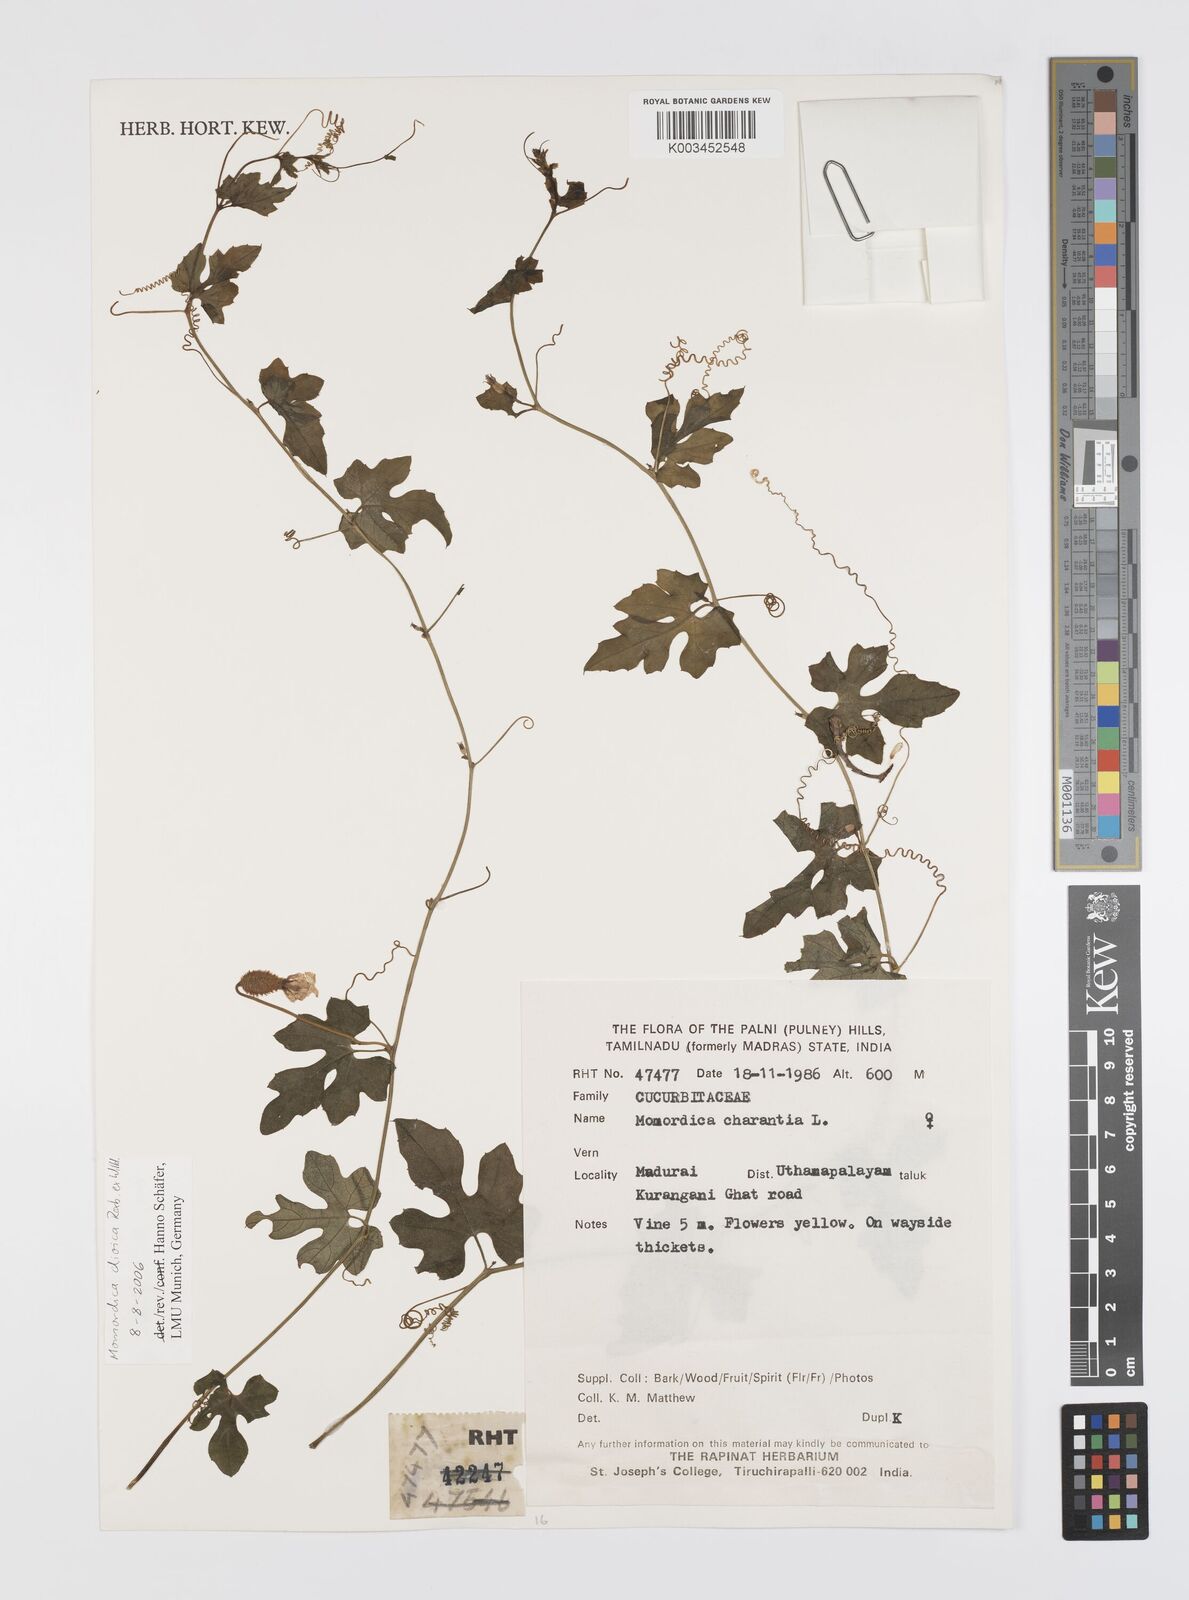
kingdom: Plantae
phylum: Tracheophyta
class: Magnoliopsida
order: Cucurbitales
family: Cucurbitaceae
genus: Momordica
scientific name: Momordica dioica
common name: Spine gourd
